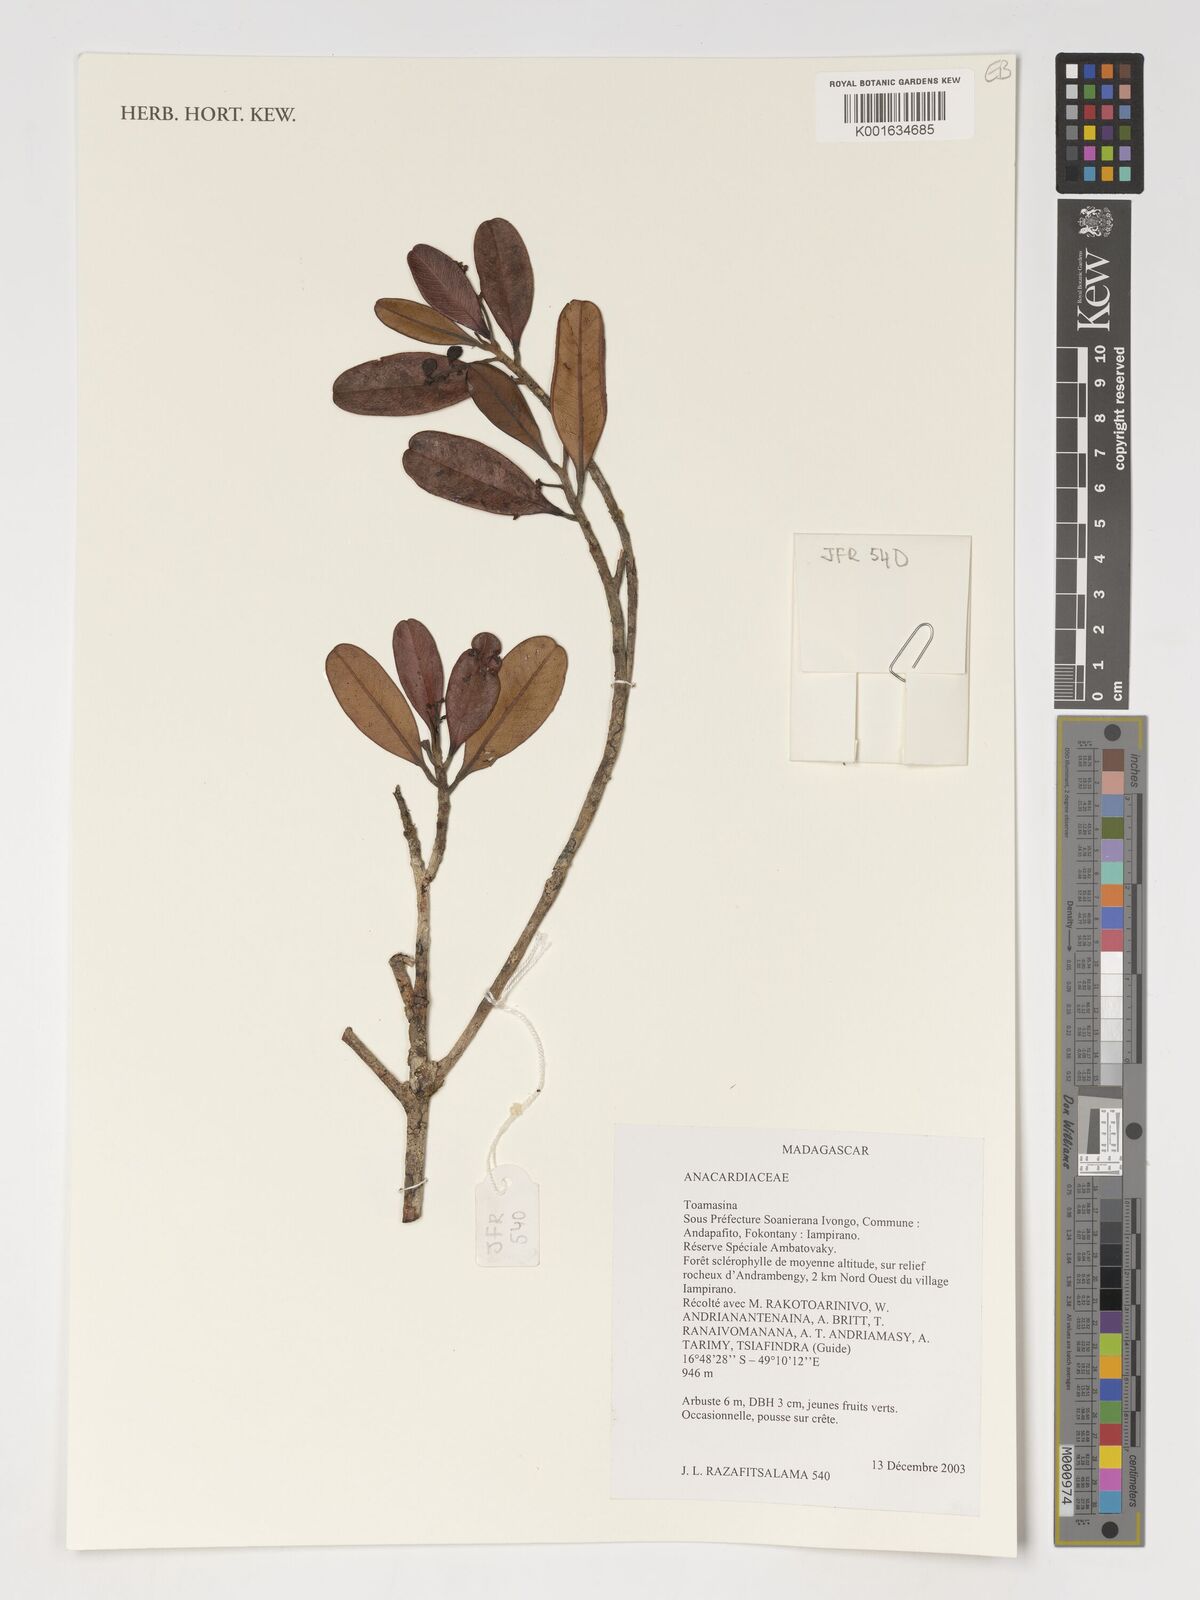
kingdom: Plantae
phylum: Tracheophyta
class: Magnoliopsida
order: Sapindales
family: Anacardiaceae
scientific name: Anacardiaceae
